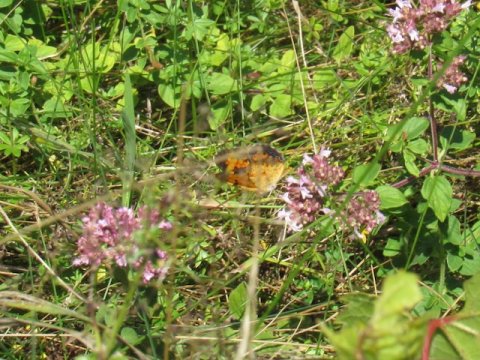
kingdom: Animalia
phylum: Arthropoda
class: Insecta
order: Lepidoptera
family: Nymphalidae
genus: Phyciodes
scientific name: Phyciodes tharos
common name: Pearl Crescent
